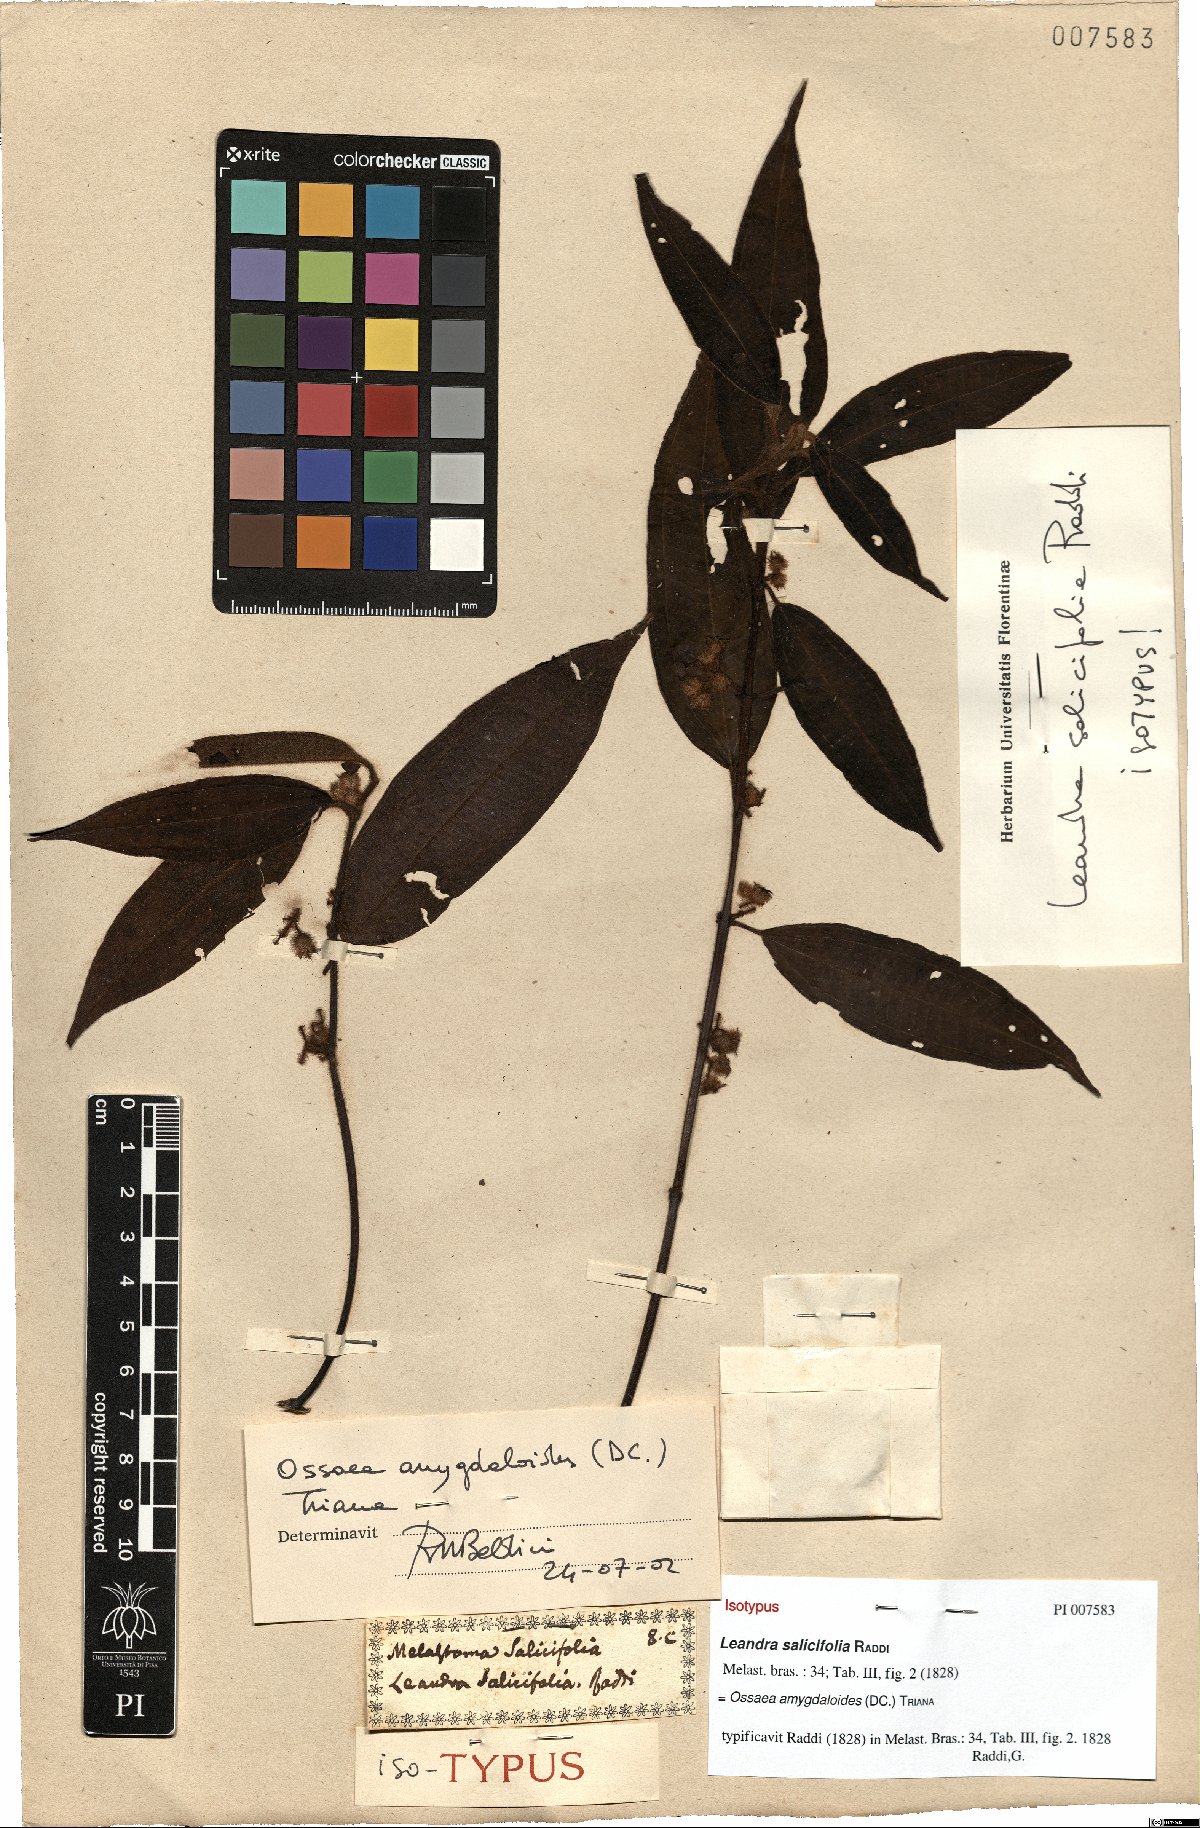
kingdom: Plantae
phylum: Tracheophyta
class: Magnoliopsida
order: Myrtales
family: Melastomataceae
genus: Miconia
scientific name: Miconia amygdaloides
